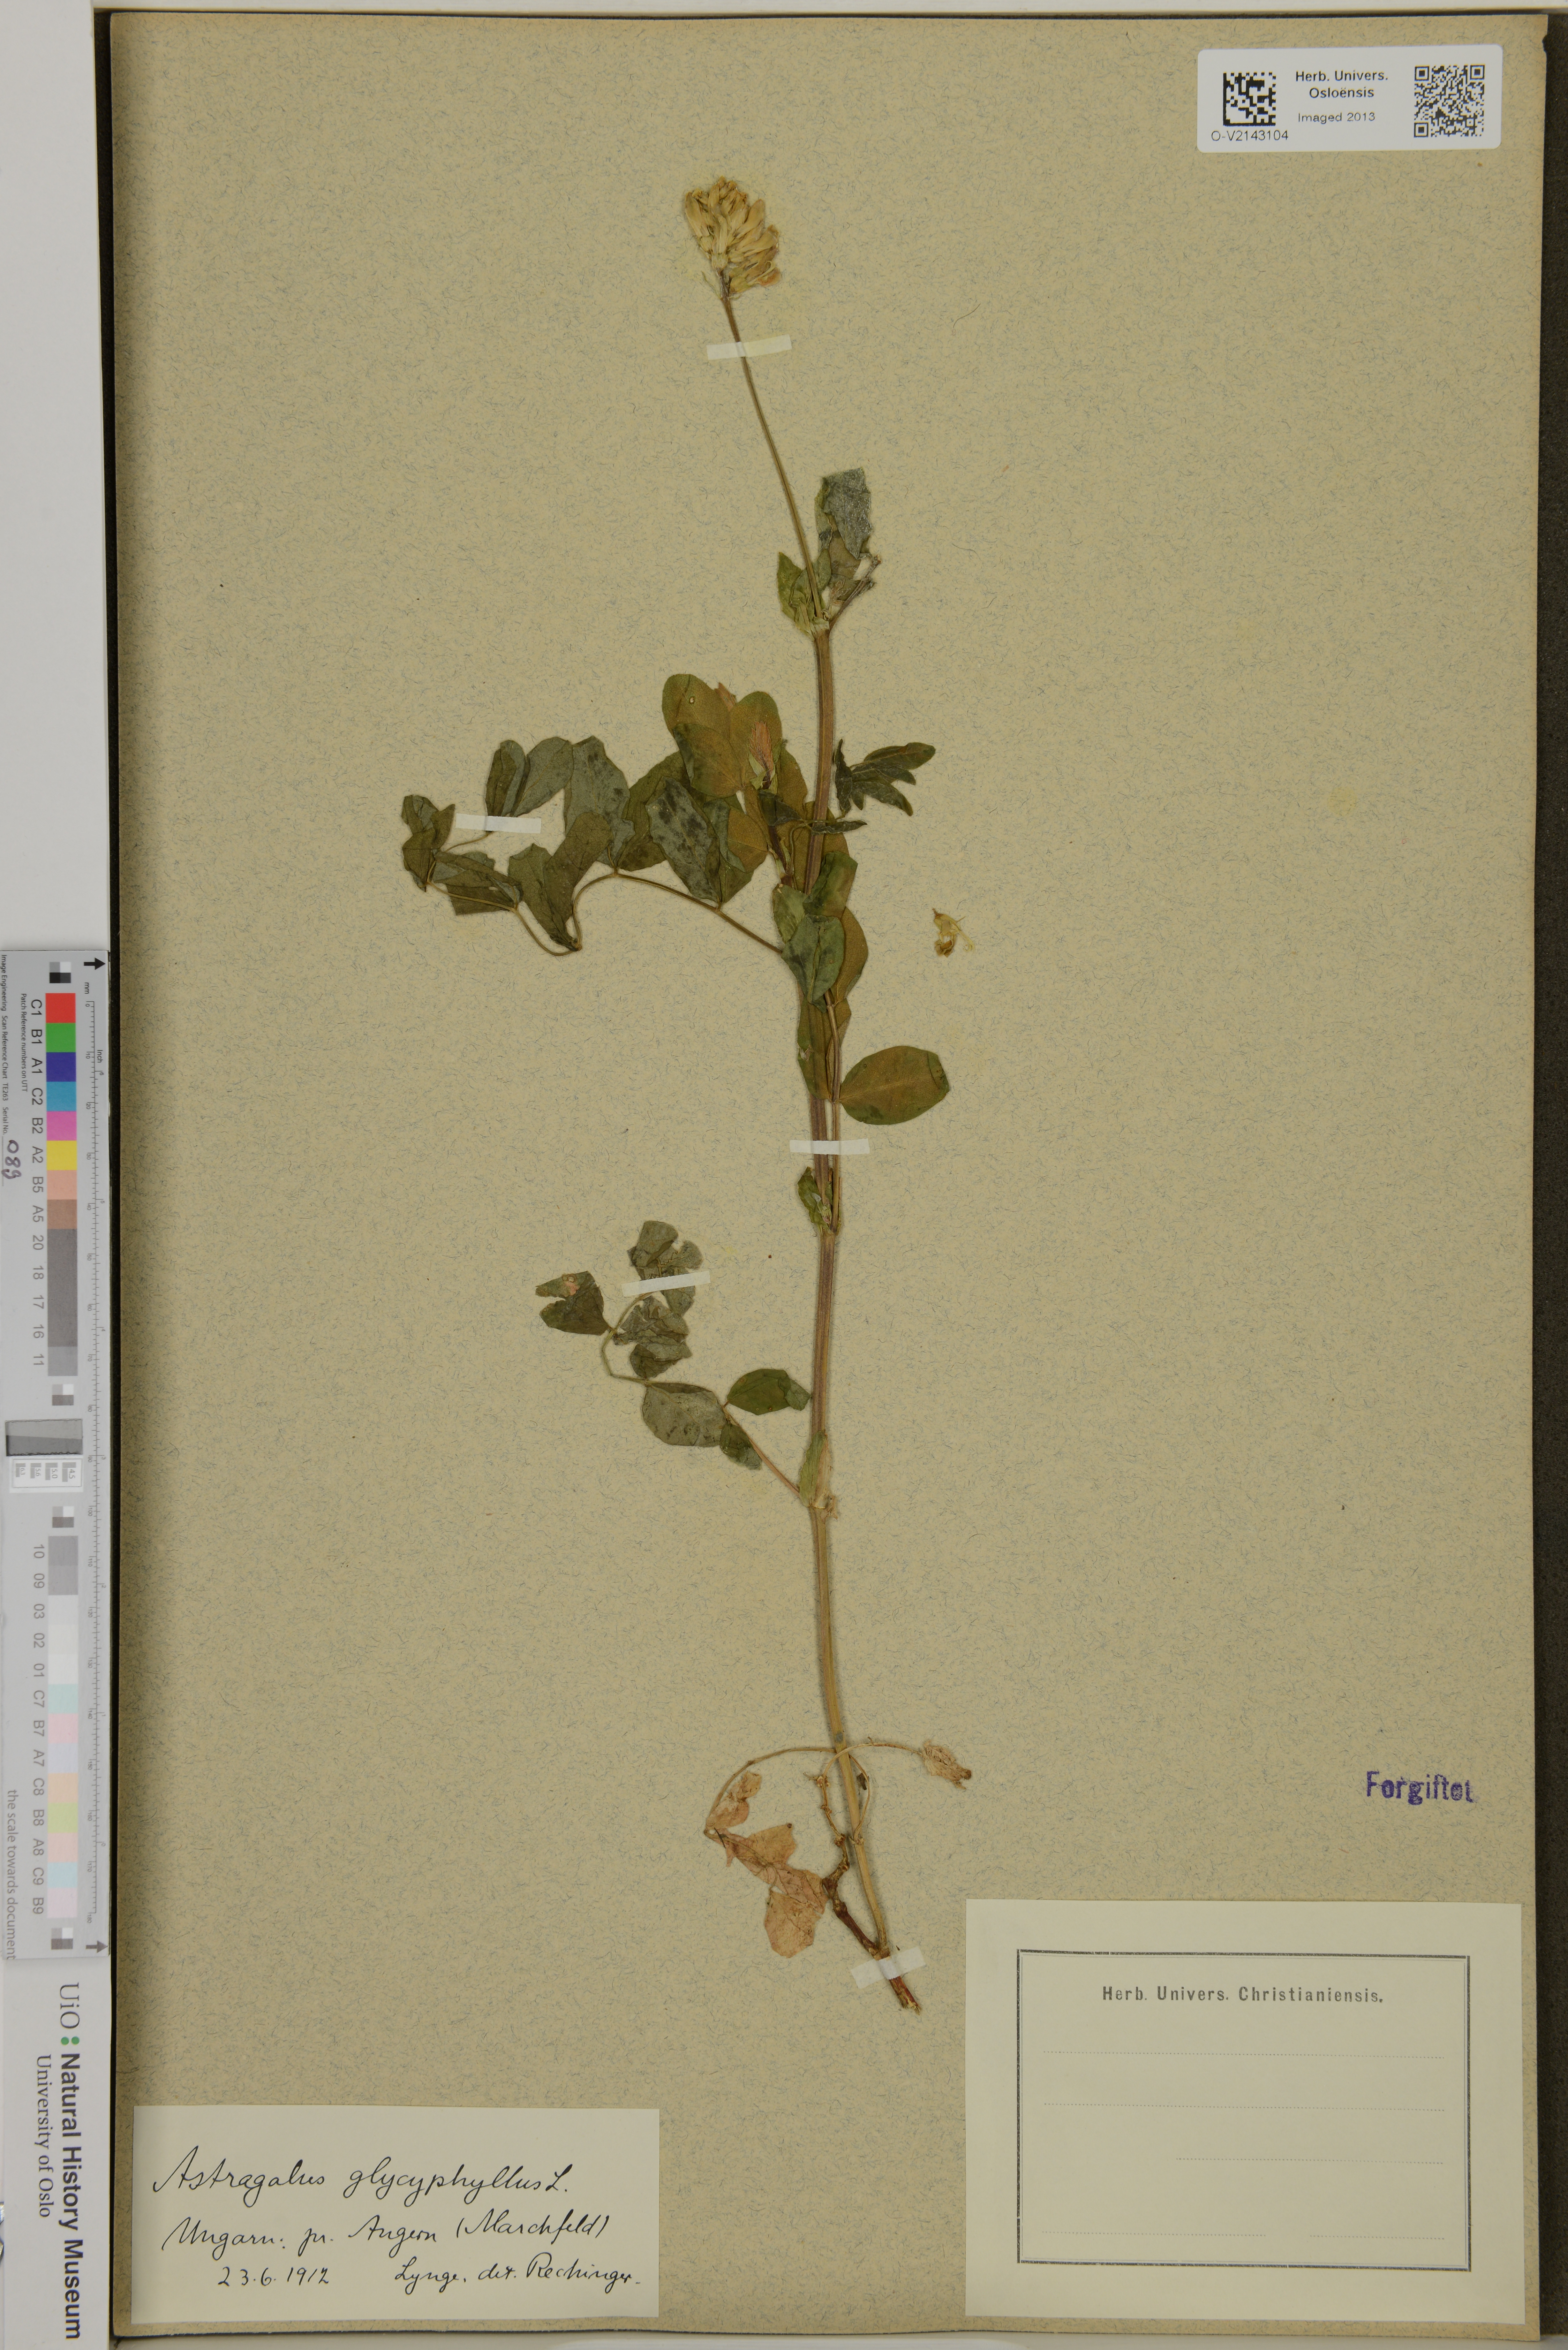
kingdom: Plantae
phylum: Tracheophyta
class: Magnoliopsida
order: Fabales
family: Fabaceae
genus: Astragalus
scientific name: Astragalus glycyphyllos
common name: Wild liquorice
